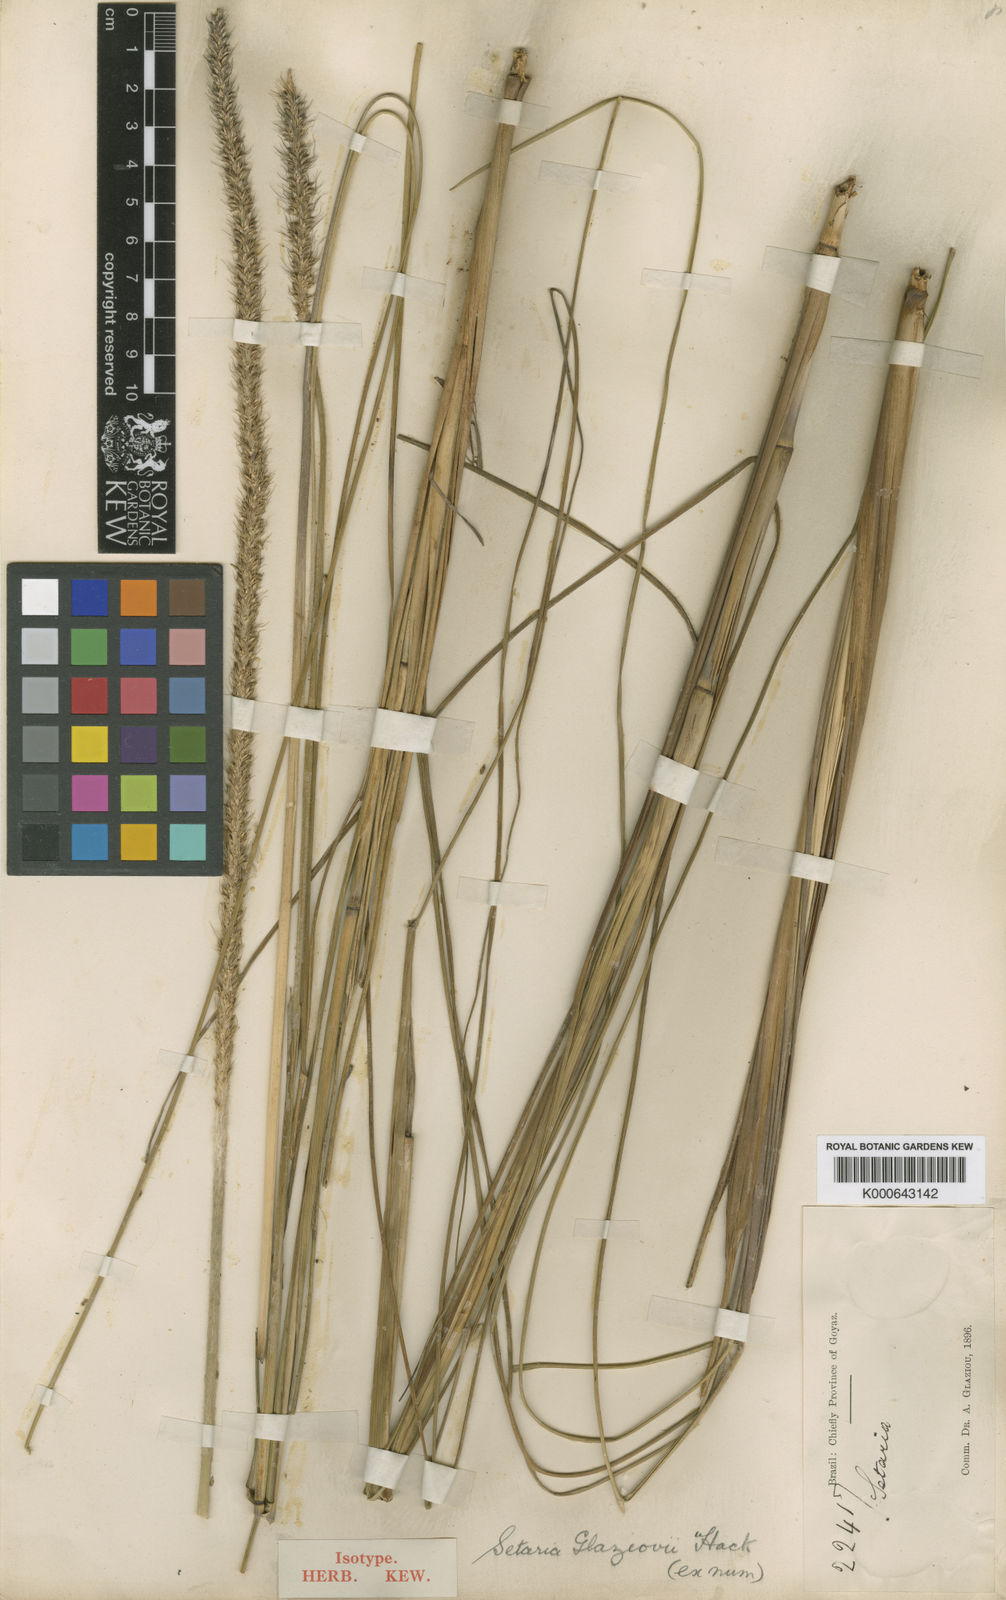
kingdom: Plantae
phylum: Tracheophyta
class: Liliopsida
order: Poales
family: Poaceae
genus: Setaria
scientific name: Setaria
